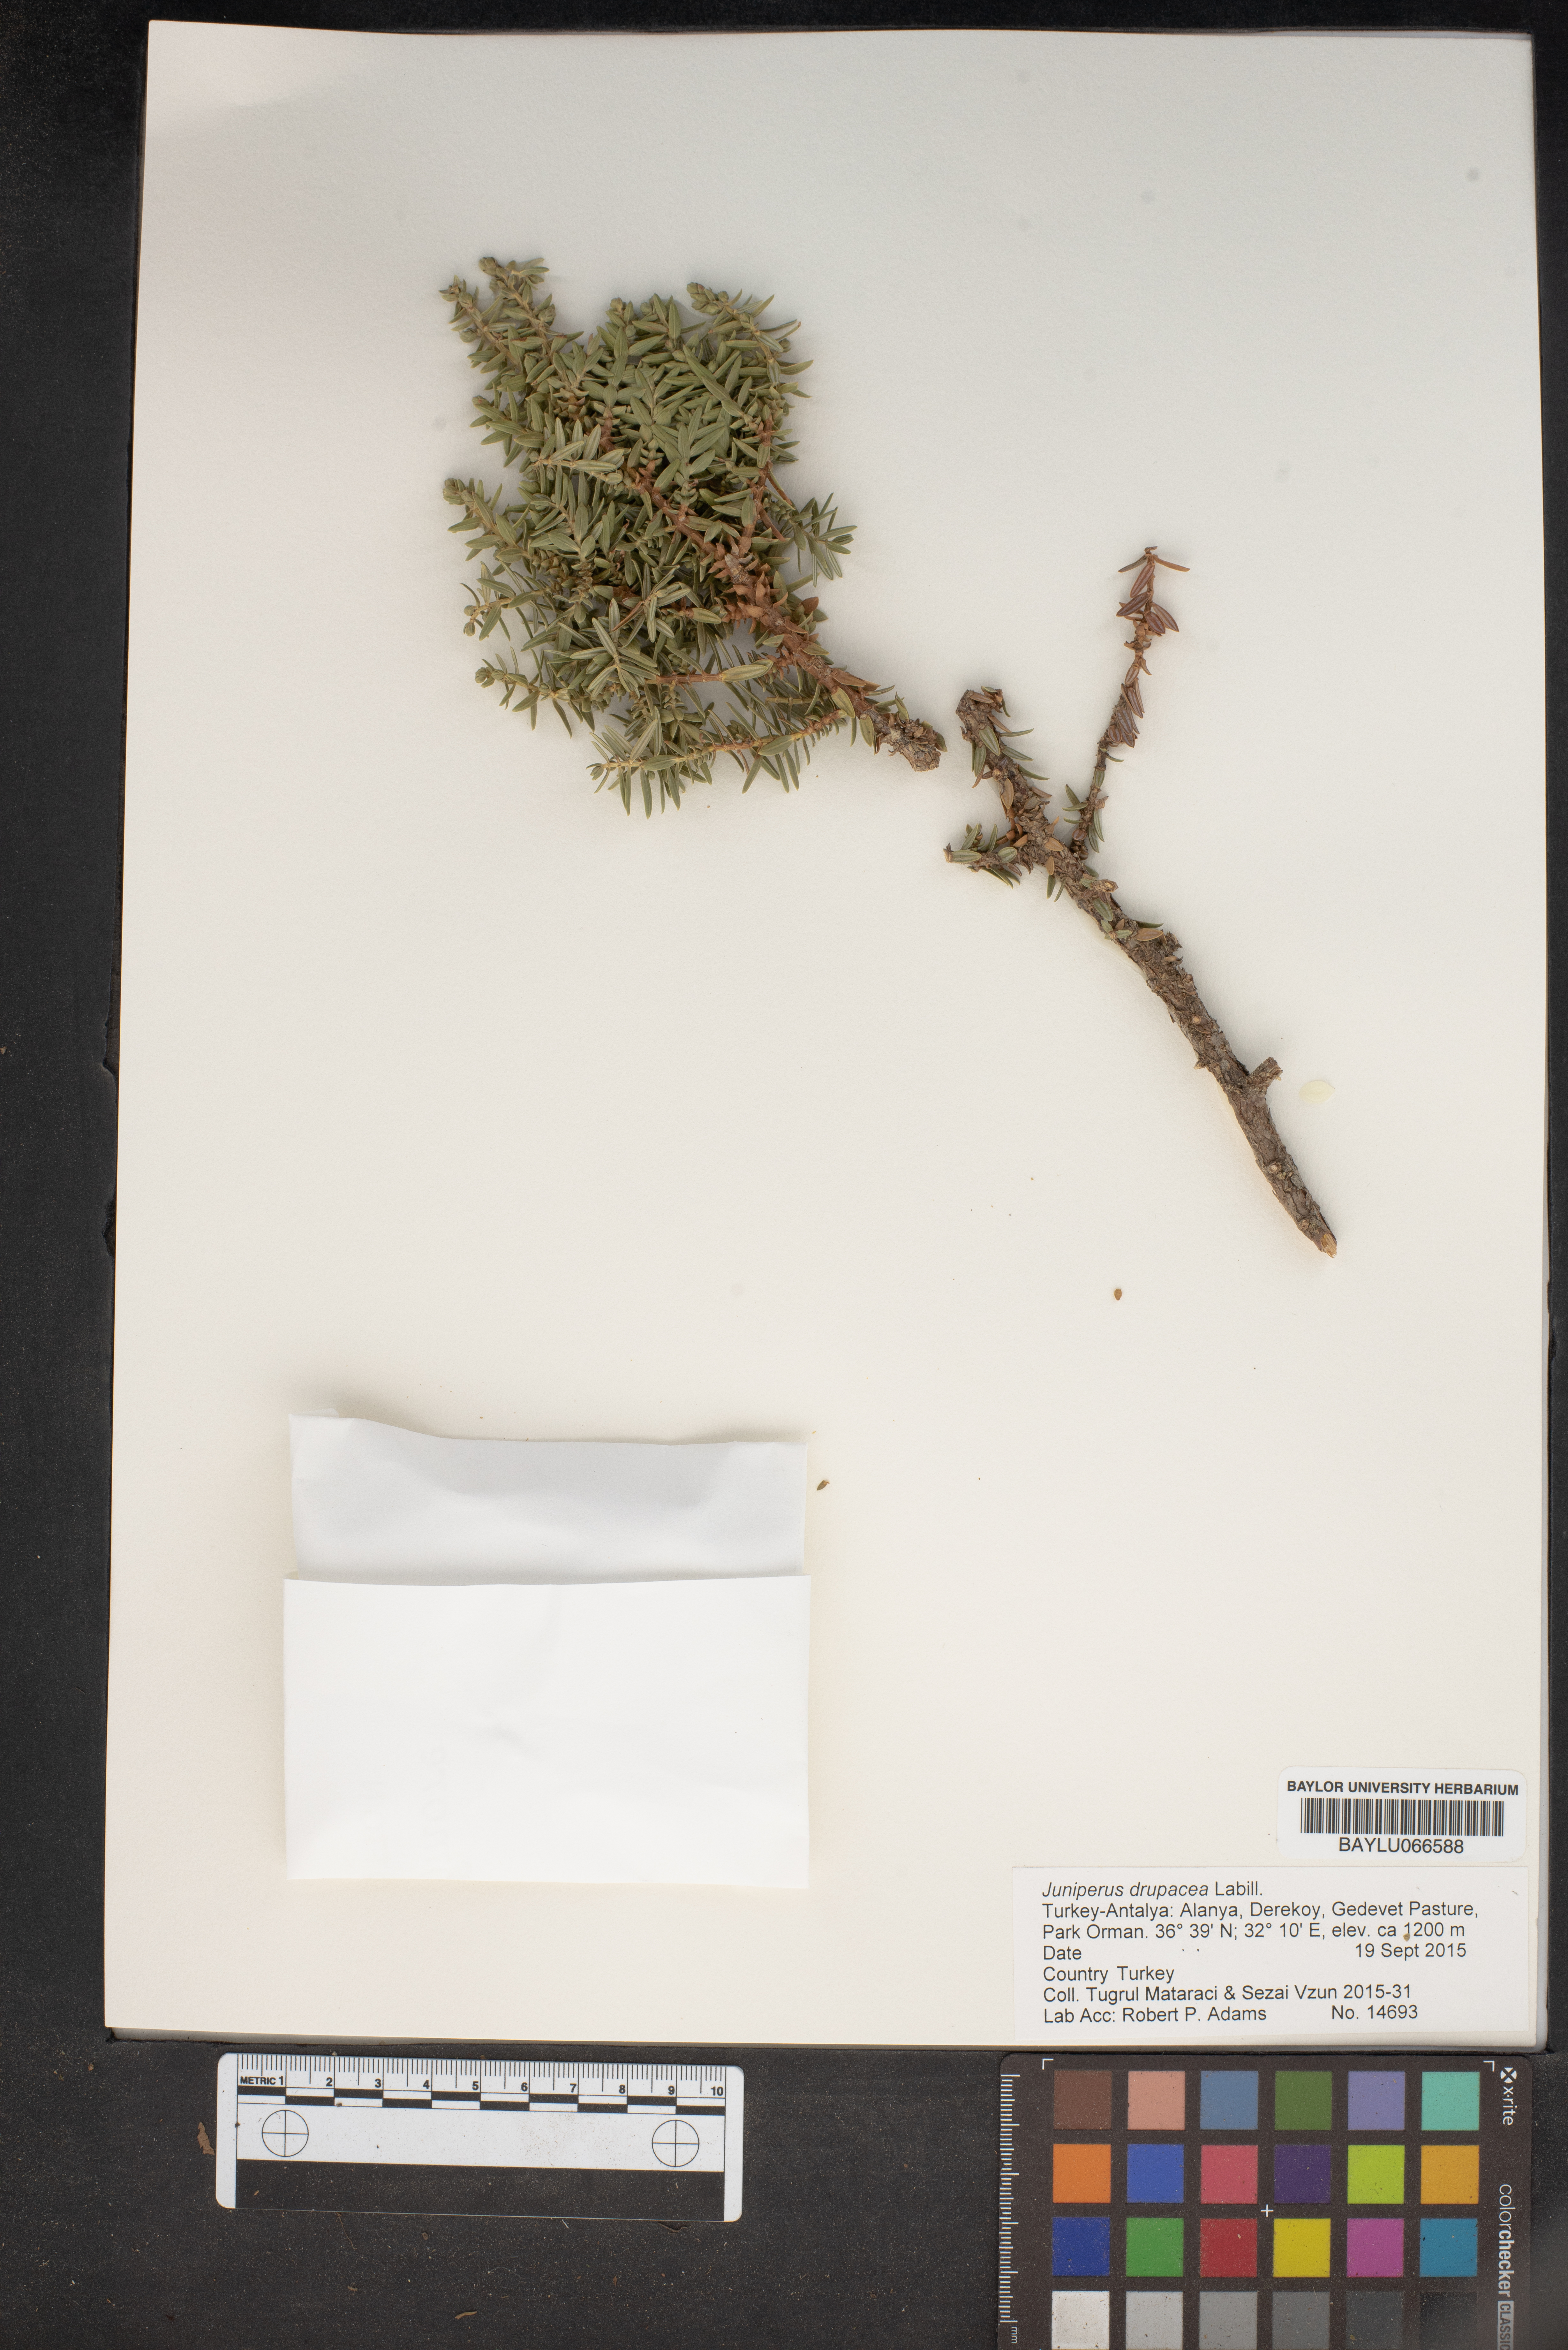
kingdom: Plantae
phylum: Tracheophyta
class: Pinopsida
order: Pinales
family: Cupressaceae
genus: Juniperus
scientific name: Juniperus drupacea
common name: Syrian juniper
